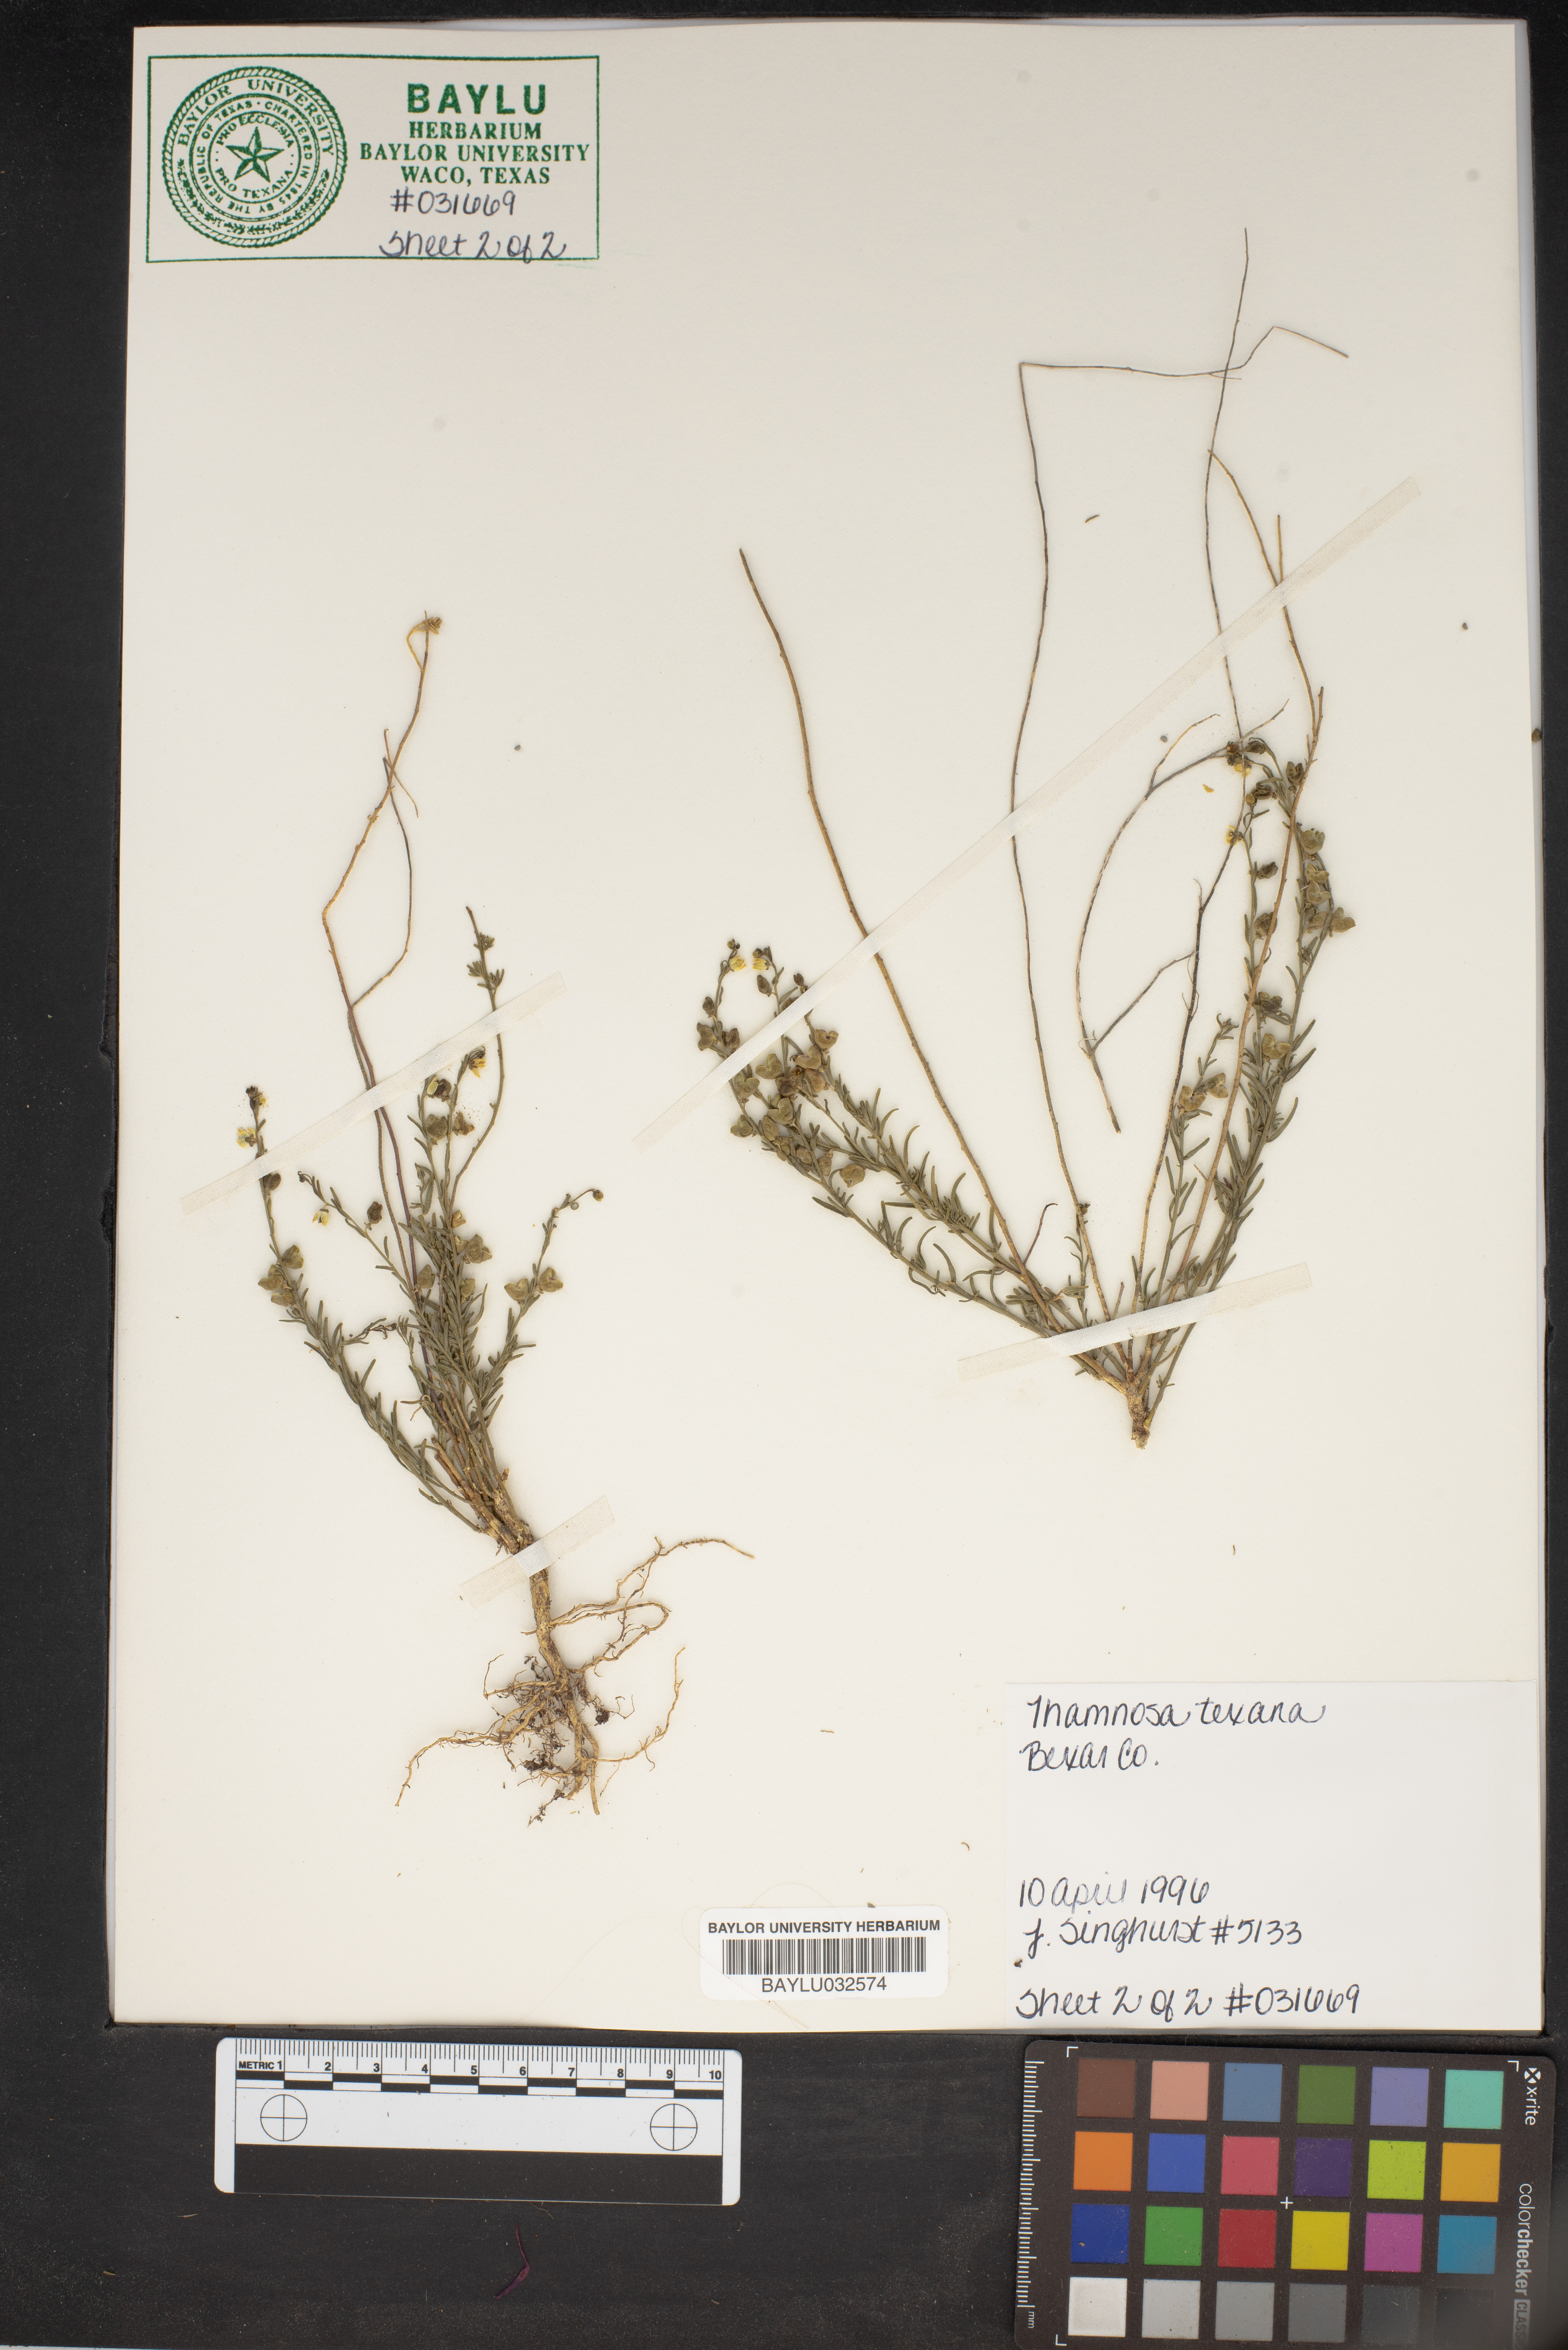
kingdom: Plantae
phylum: Tracheophyta
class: Magnoliopsida
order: Sapindales
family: Rutaceae
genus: Thamnosma
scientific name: Thamnosma texana
